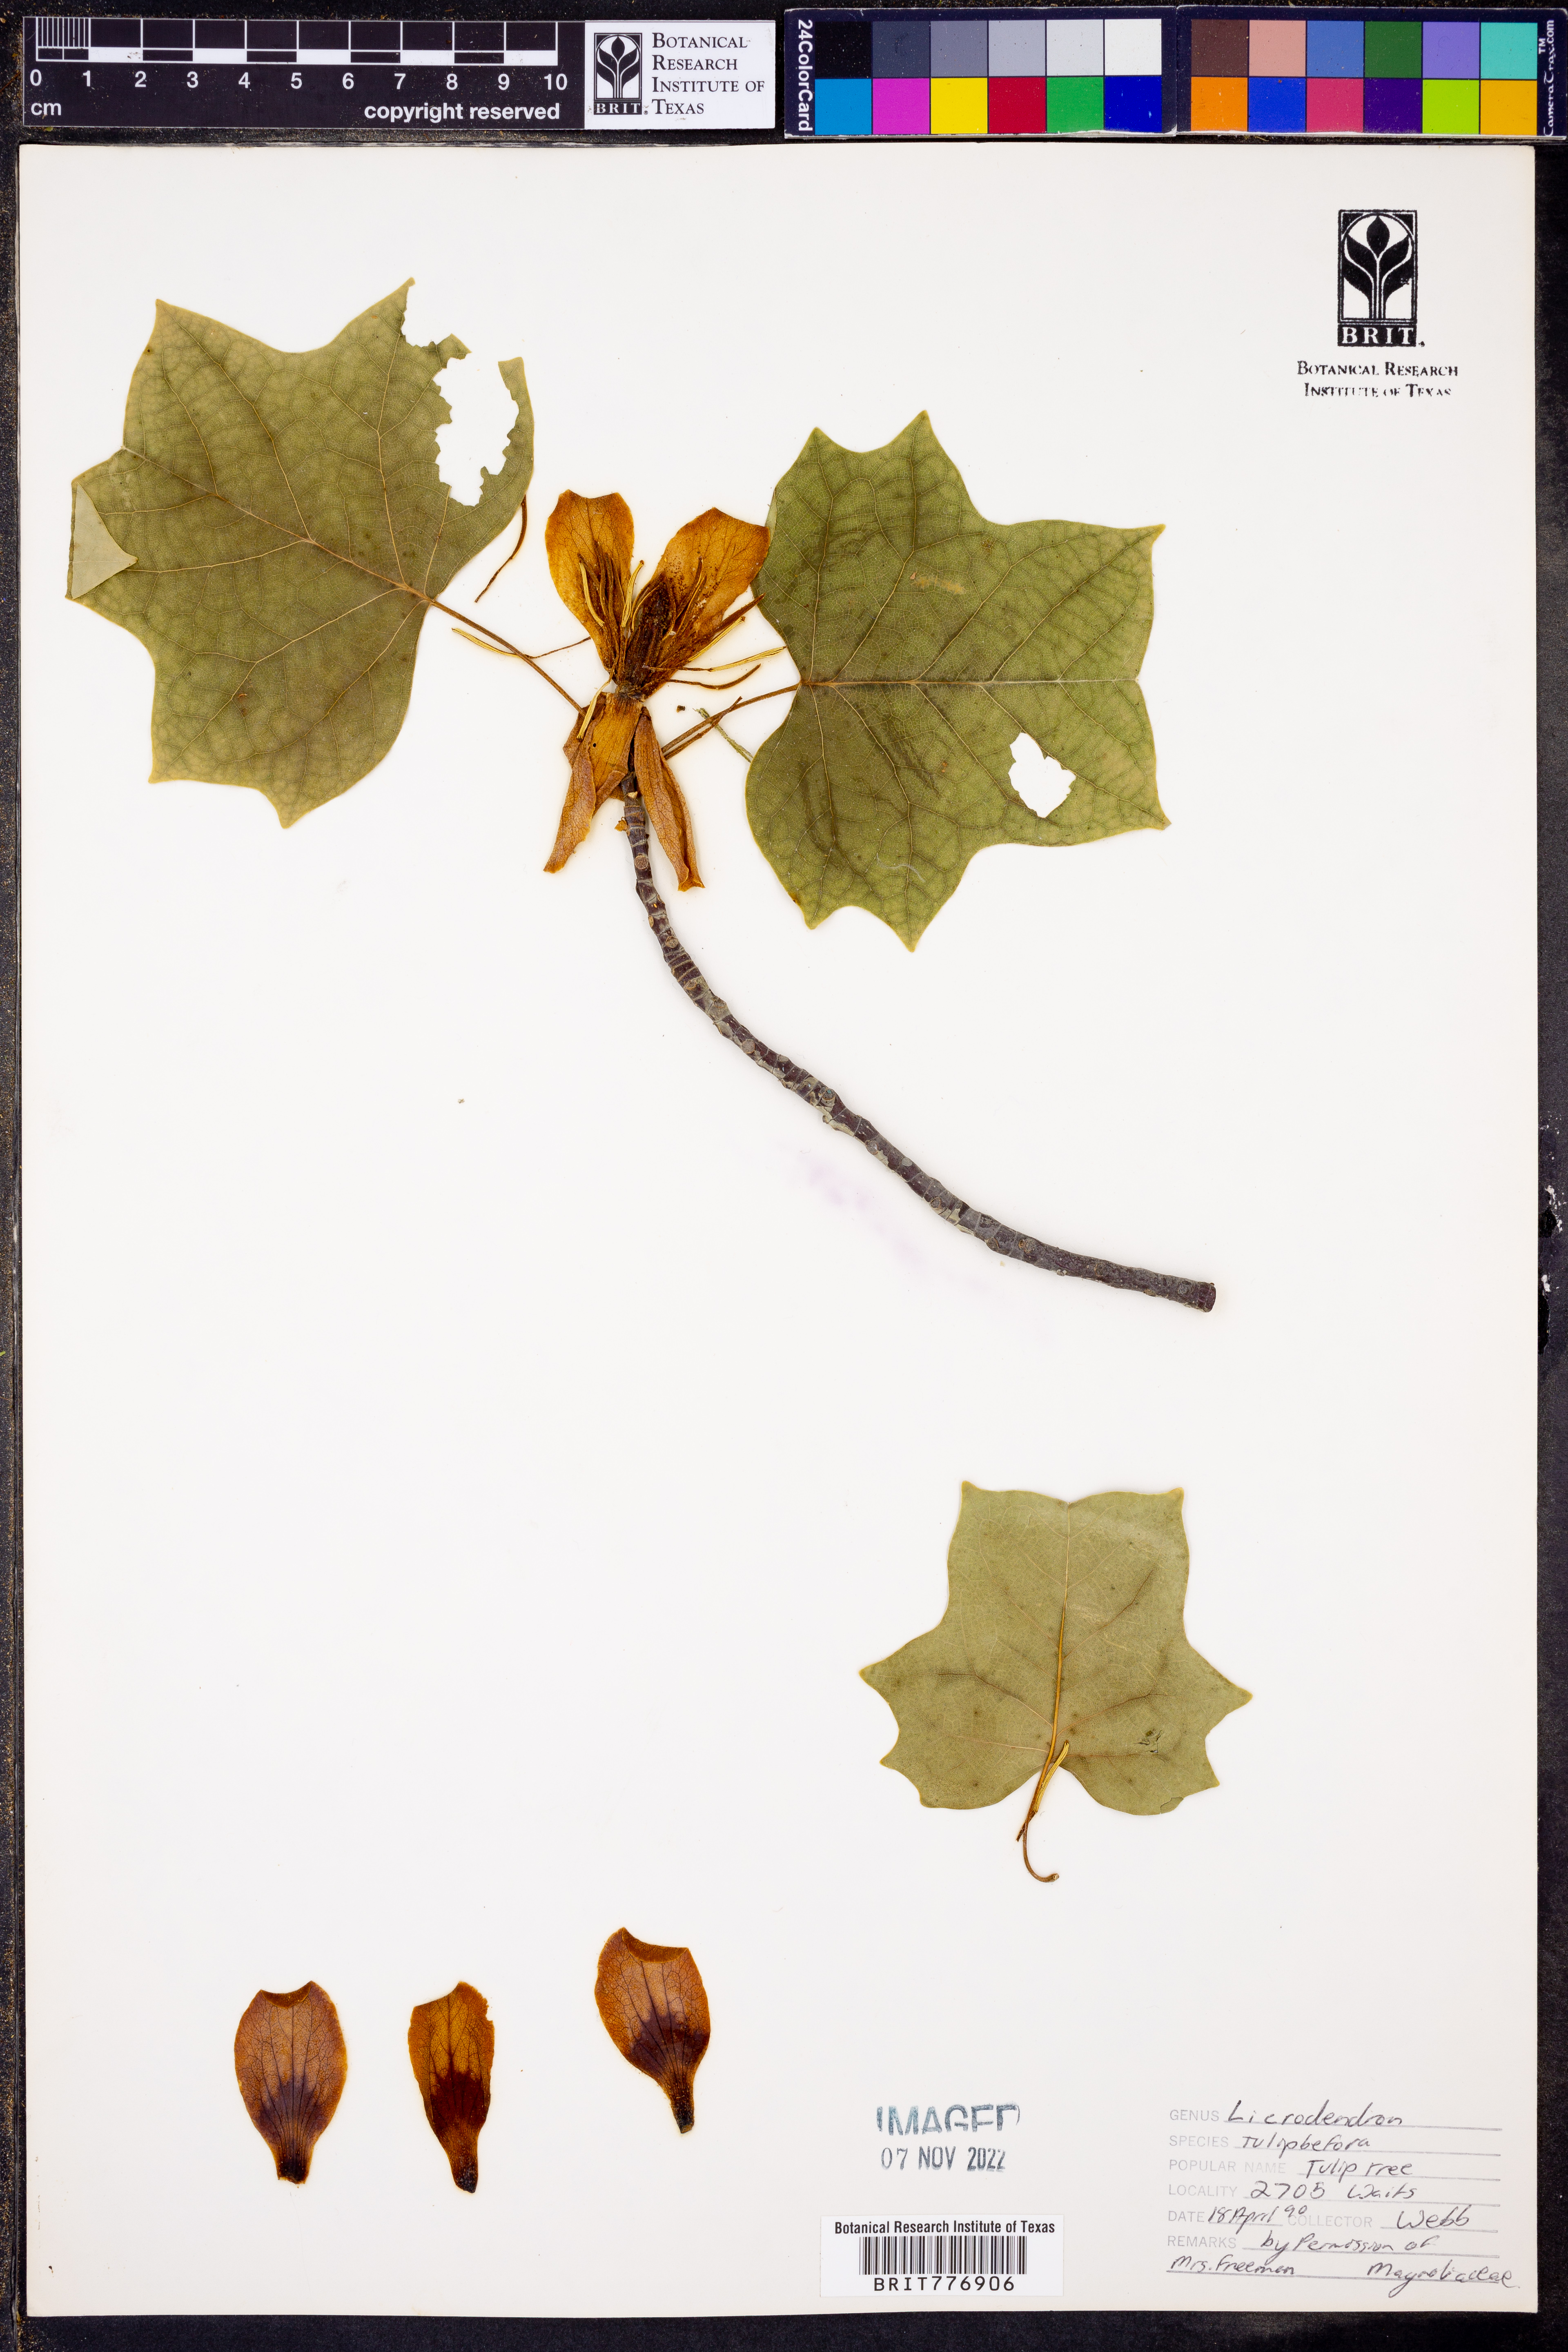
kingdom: Plantae
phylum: Tracheophyta
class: Magnoliopsida
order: Magnoliales
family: Magnoliaceae
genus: Liriodendron
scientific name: Liriodendron tulipifera
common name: Tulip tree
